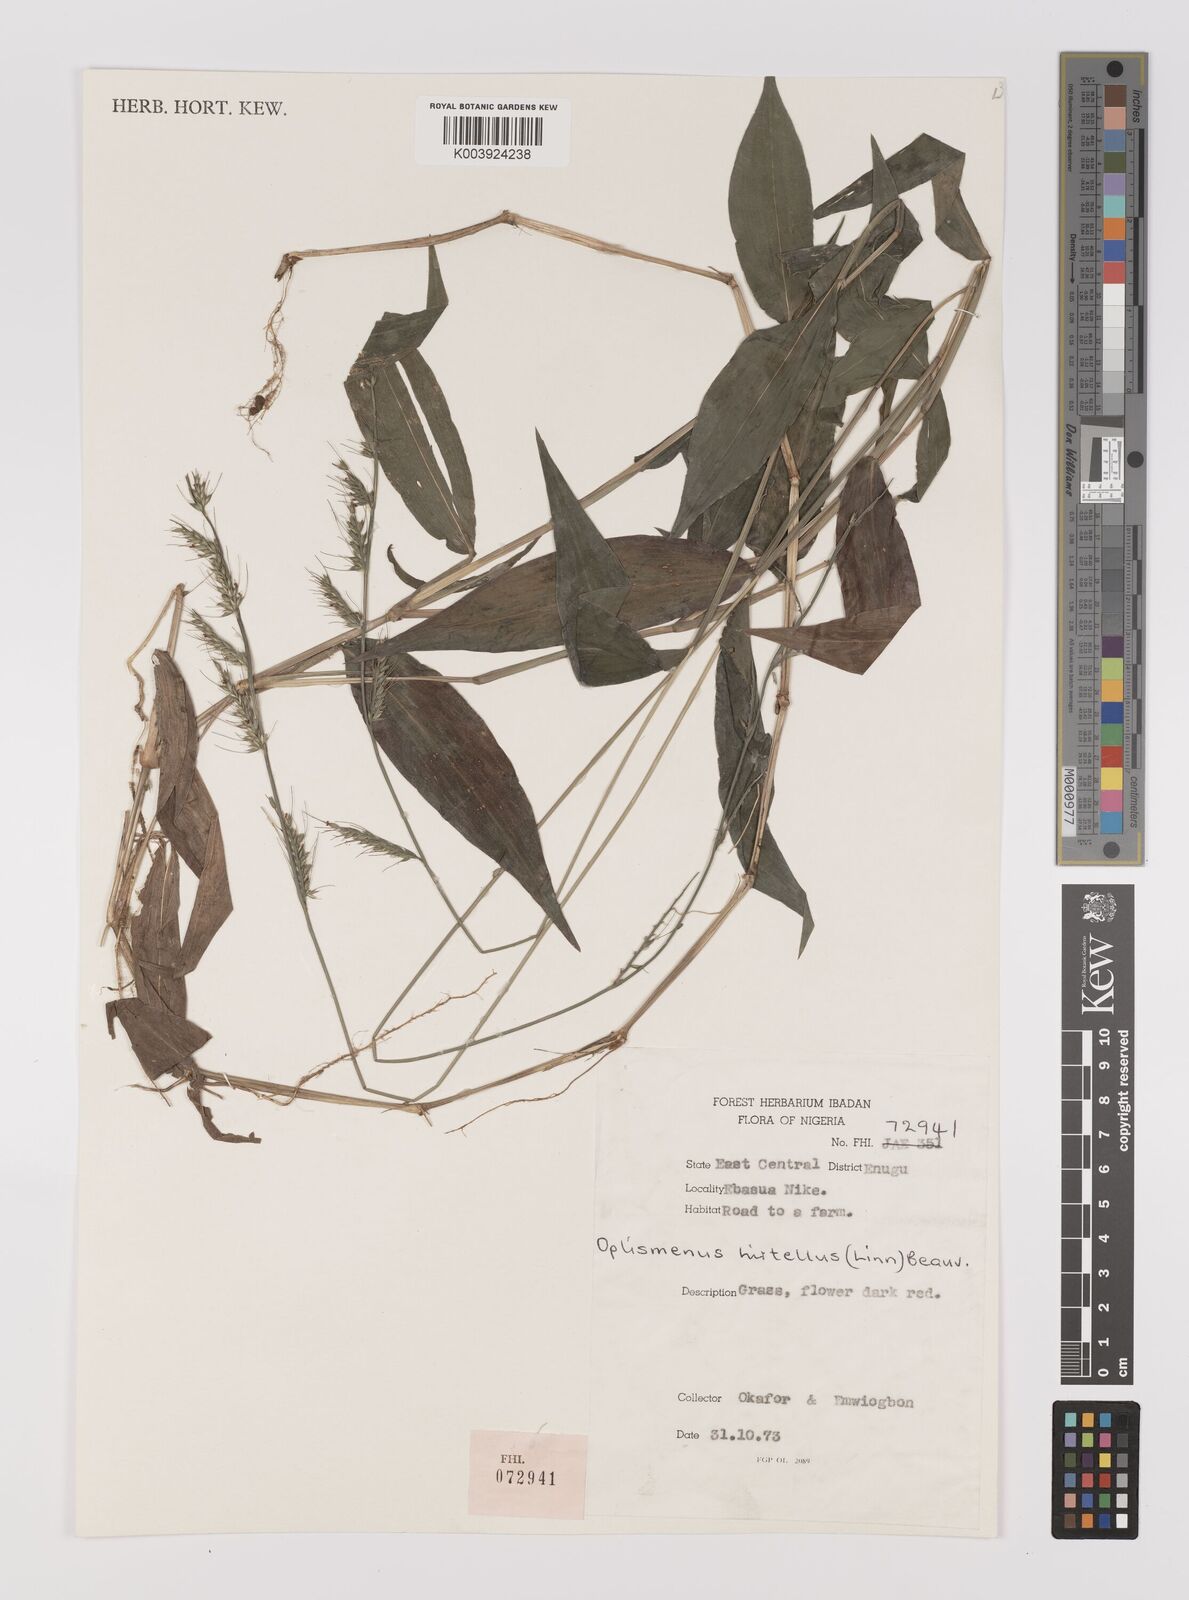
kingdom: Plantae
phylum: Tracheophyta
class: Liliopsida
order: Poales
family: Poaceae
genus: Oplismenus
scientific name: Oplismenus hirtellus
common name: Basketgrass
